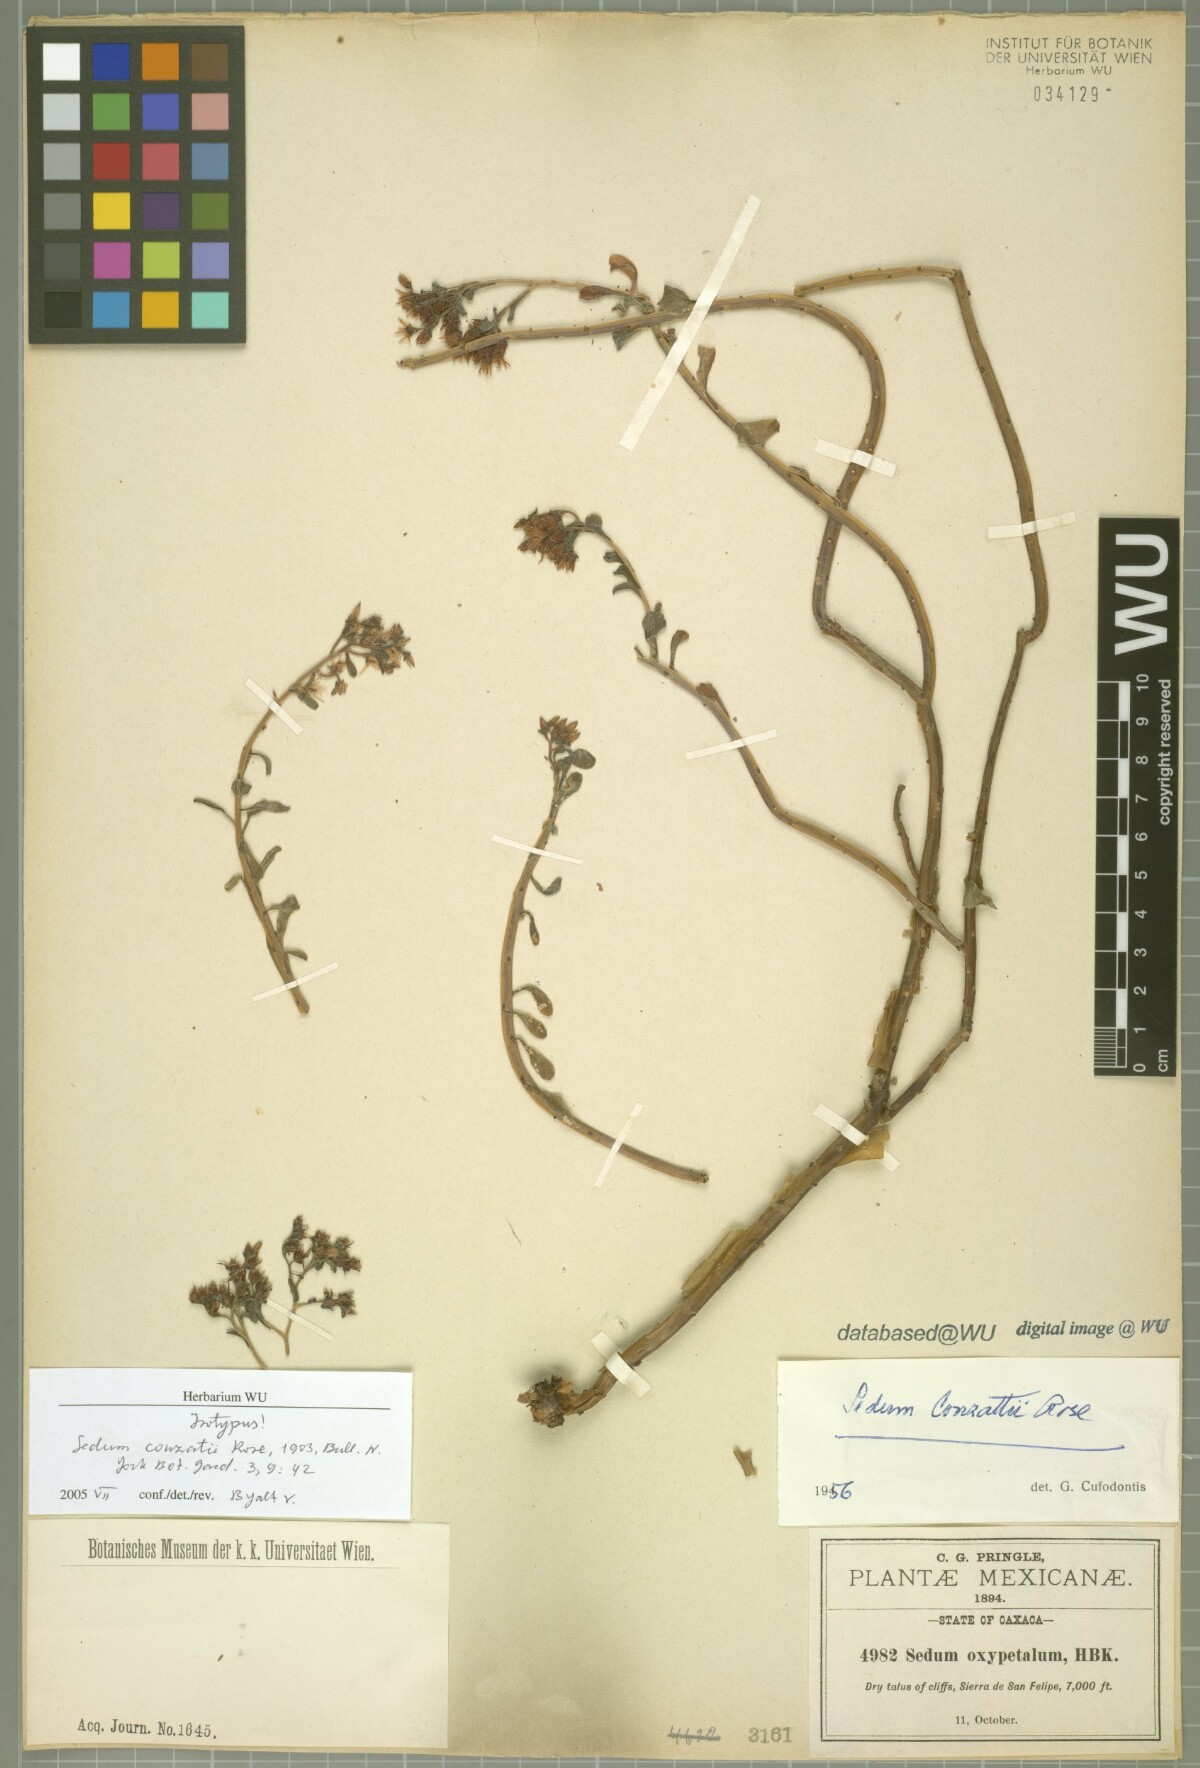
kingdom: Plantae
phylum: Tracheophyta
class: Magnoliopsida
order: Saxifragales
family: Crassulaceae
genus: Sedum
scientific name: Sedum conzattii
